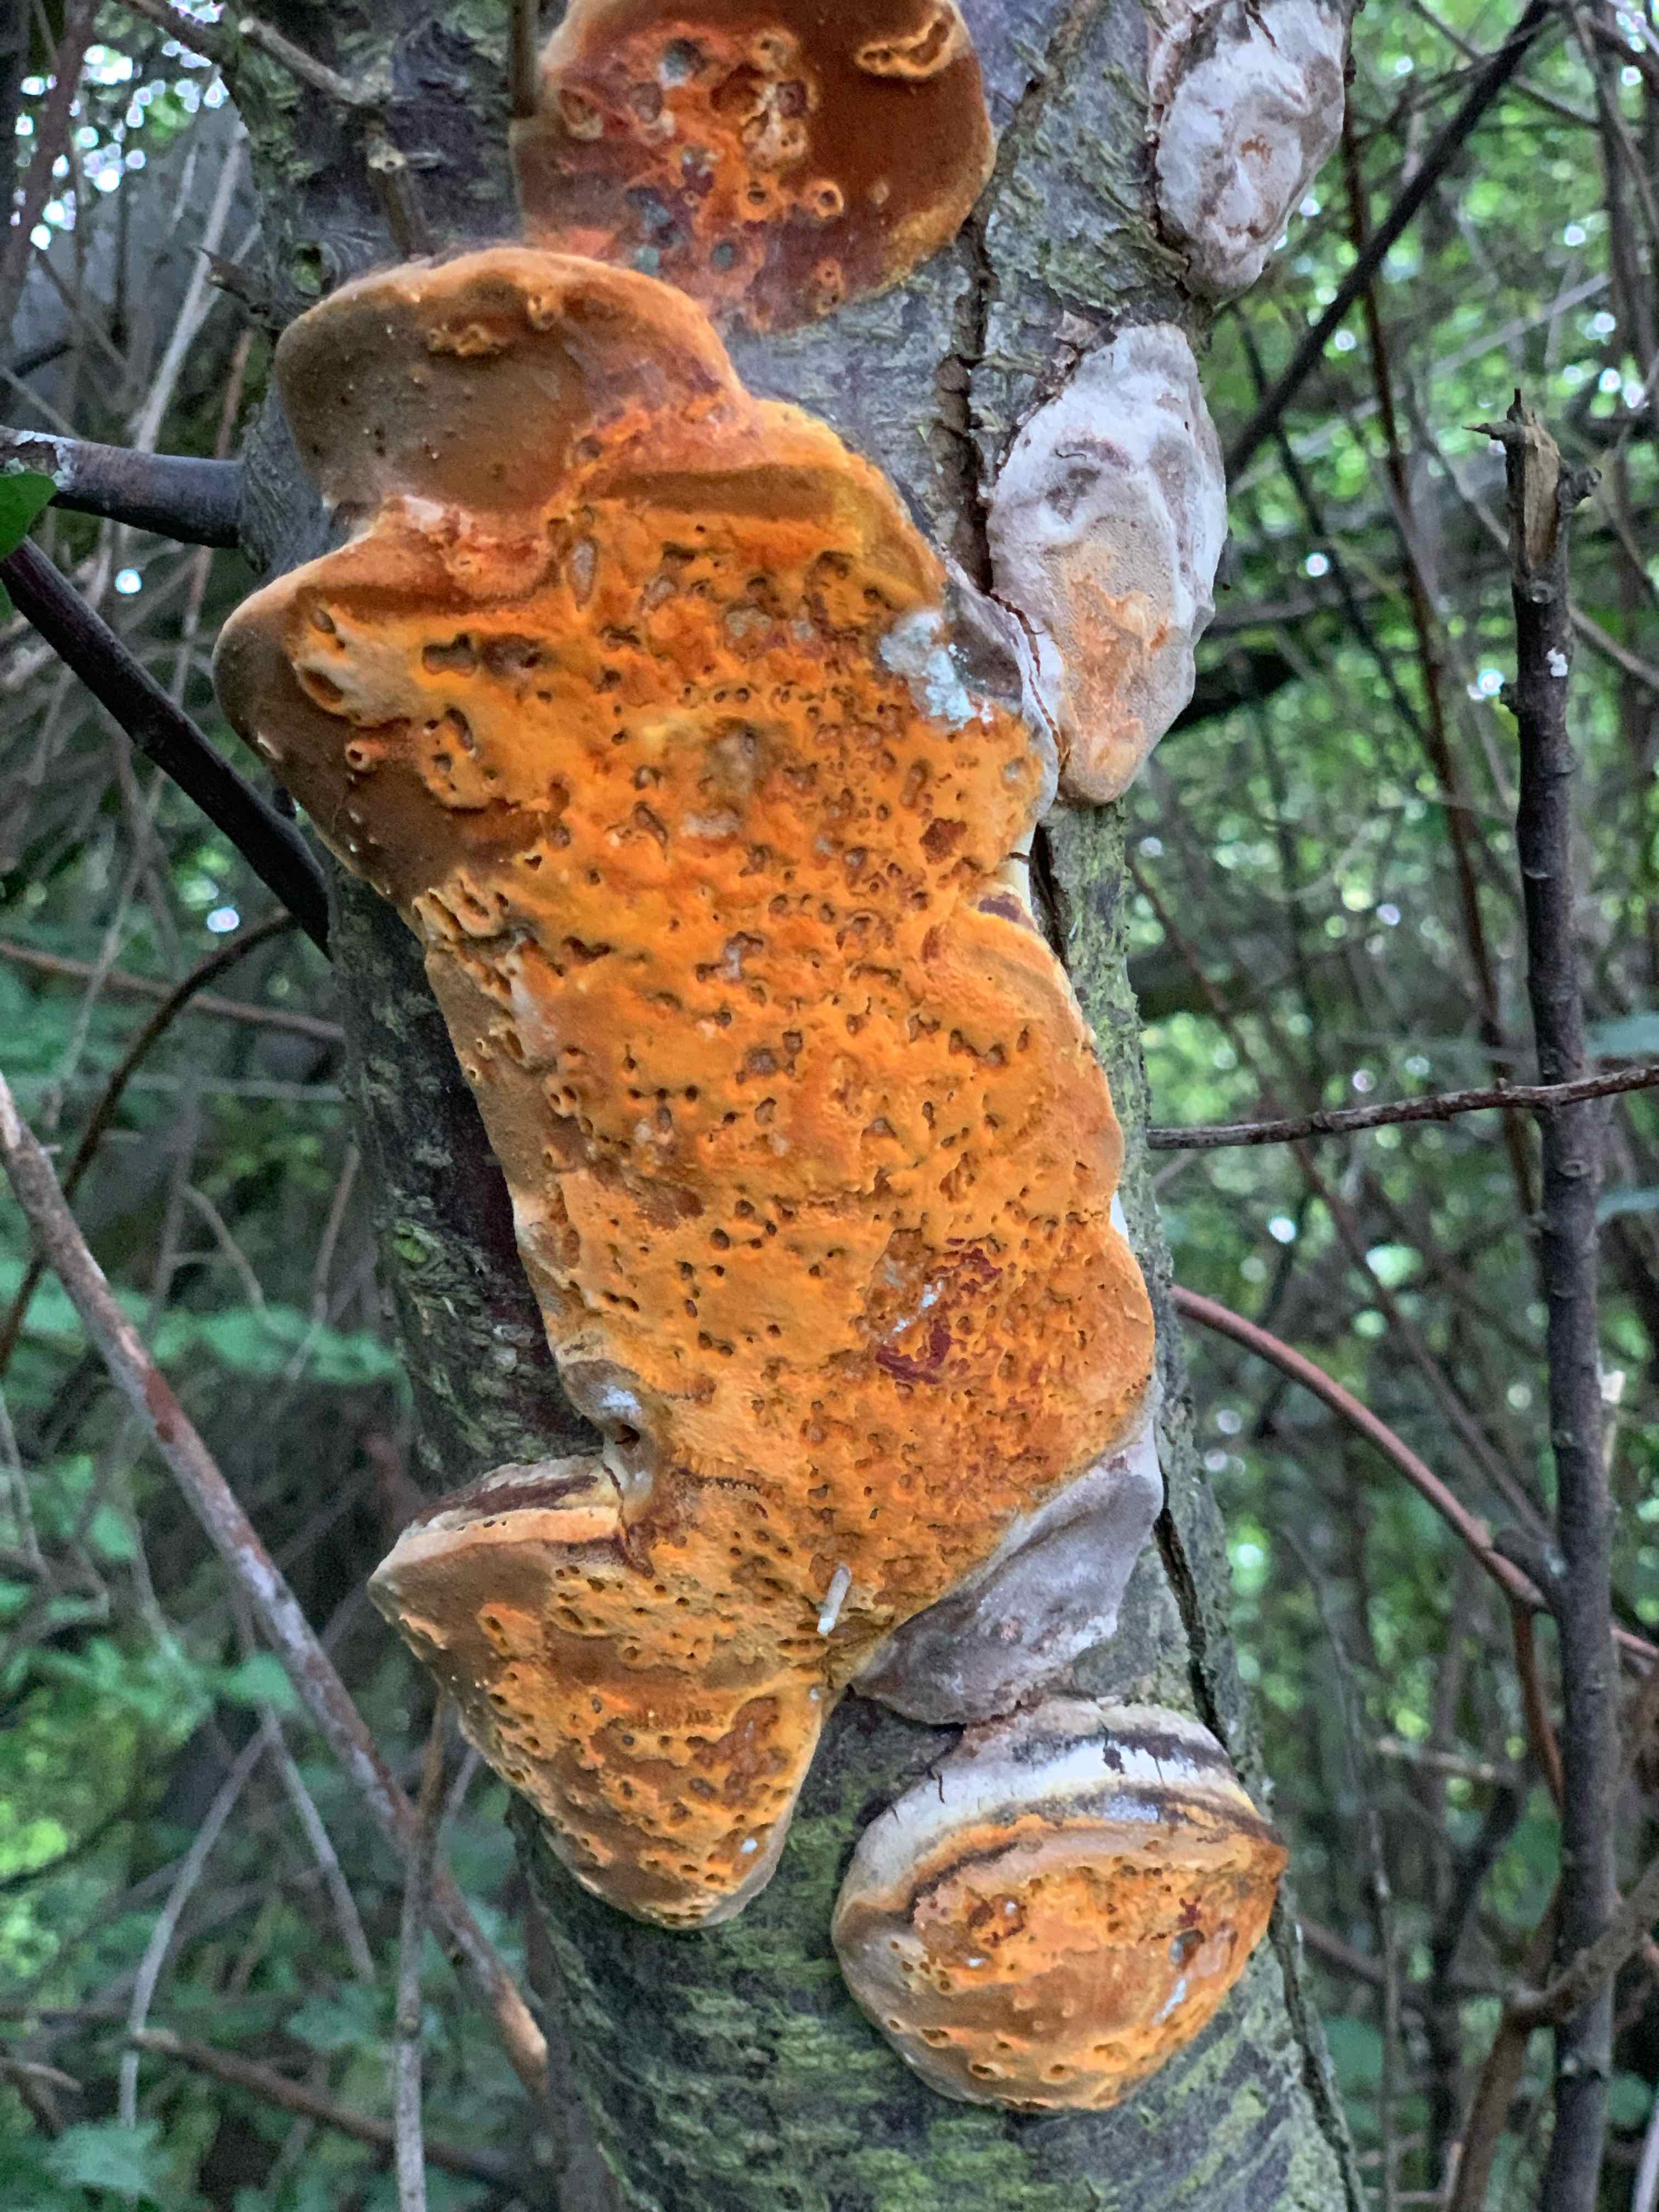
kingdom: Fungi
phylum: Basidiomycota
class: Agaricomycetes
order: Hymenochaetales
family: Hymenochaetaceae
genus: Phellinus
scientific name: Phellinus pomaceus
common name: blomme-ildporesvamp
